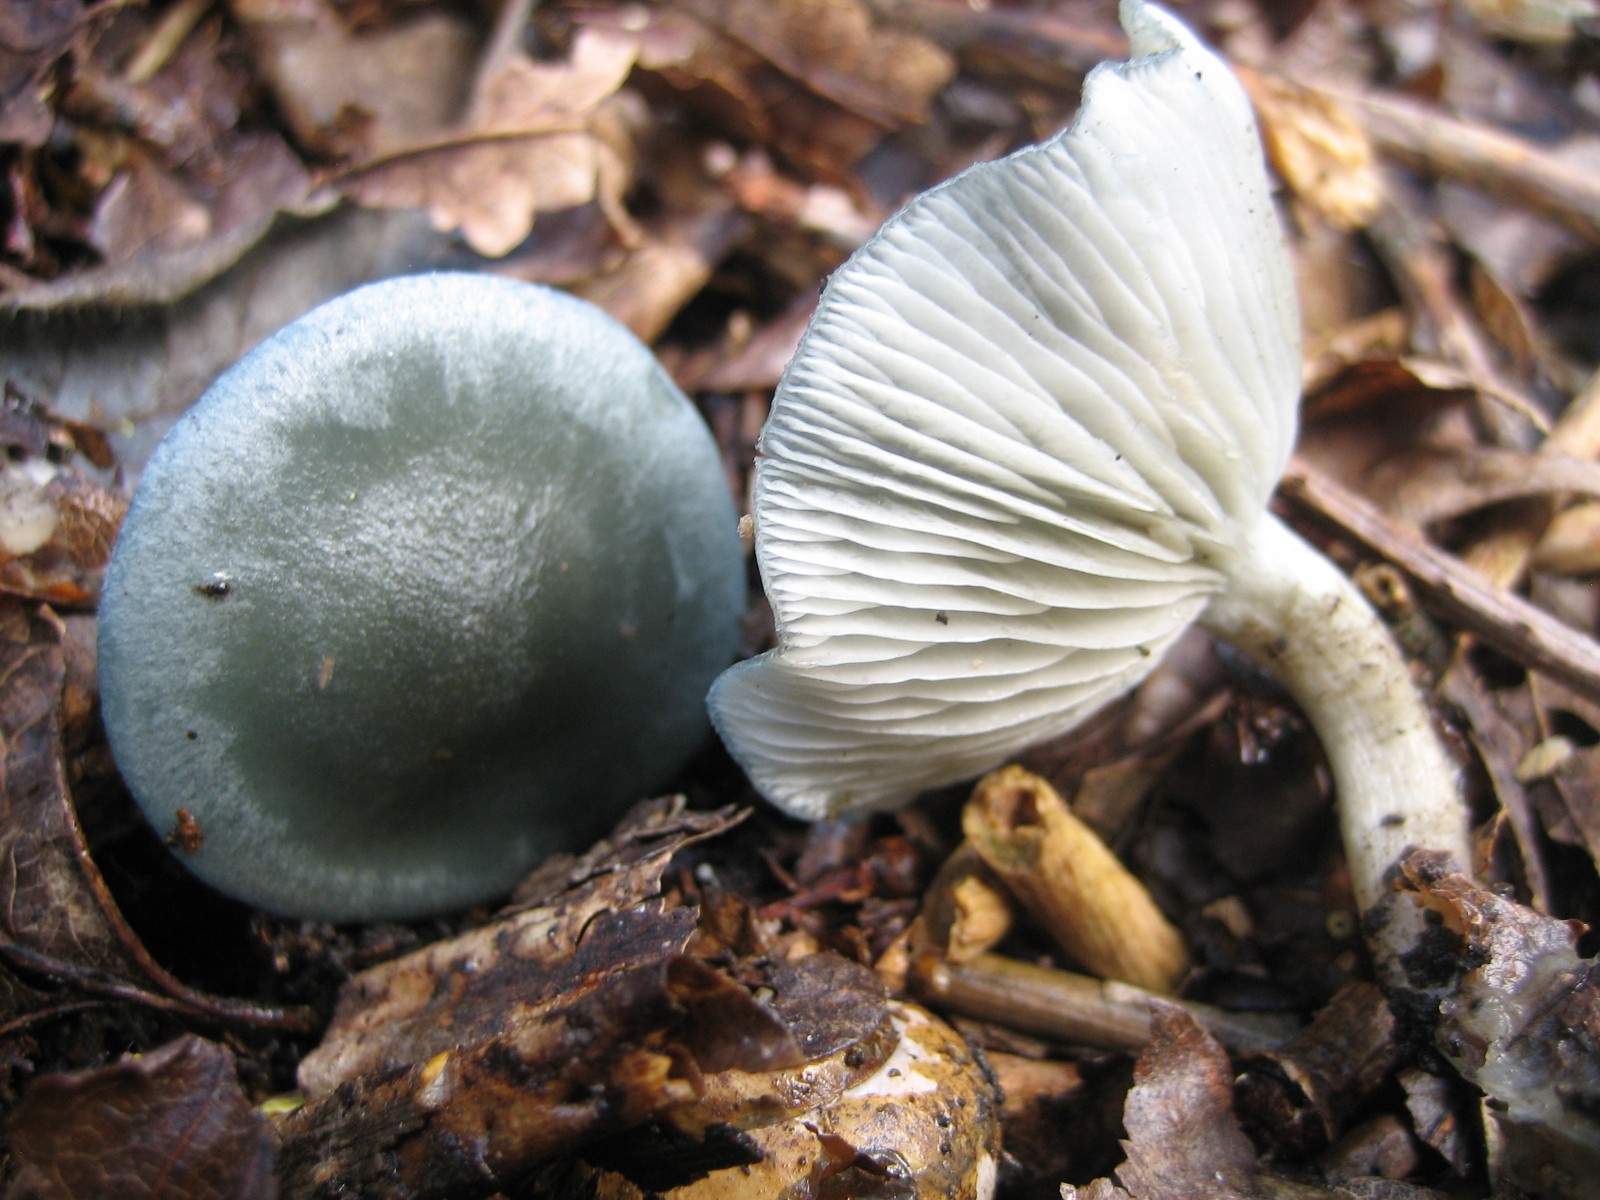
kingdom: Fungi
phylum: Basidiomycota
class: Agaricomycetes
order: Agaricales
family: Tricholomataceae
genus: Clitocybe
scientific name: Clitocybe odora
